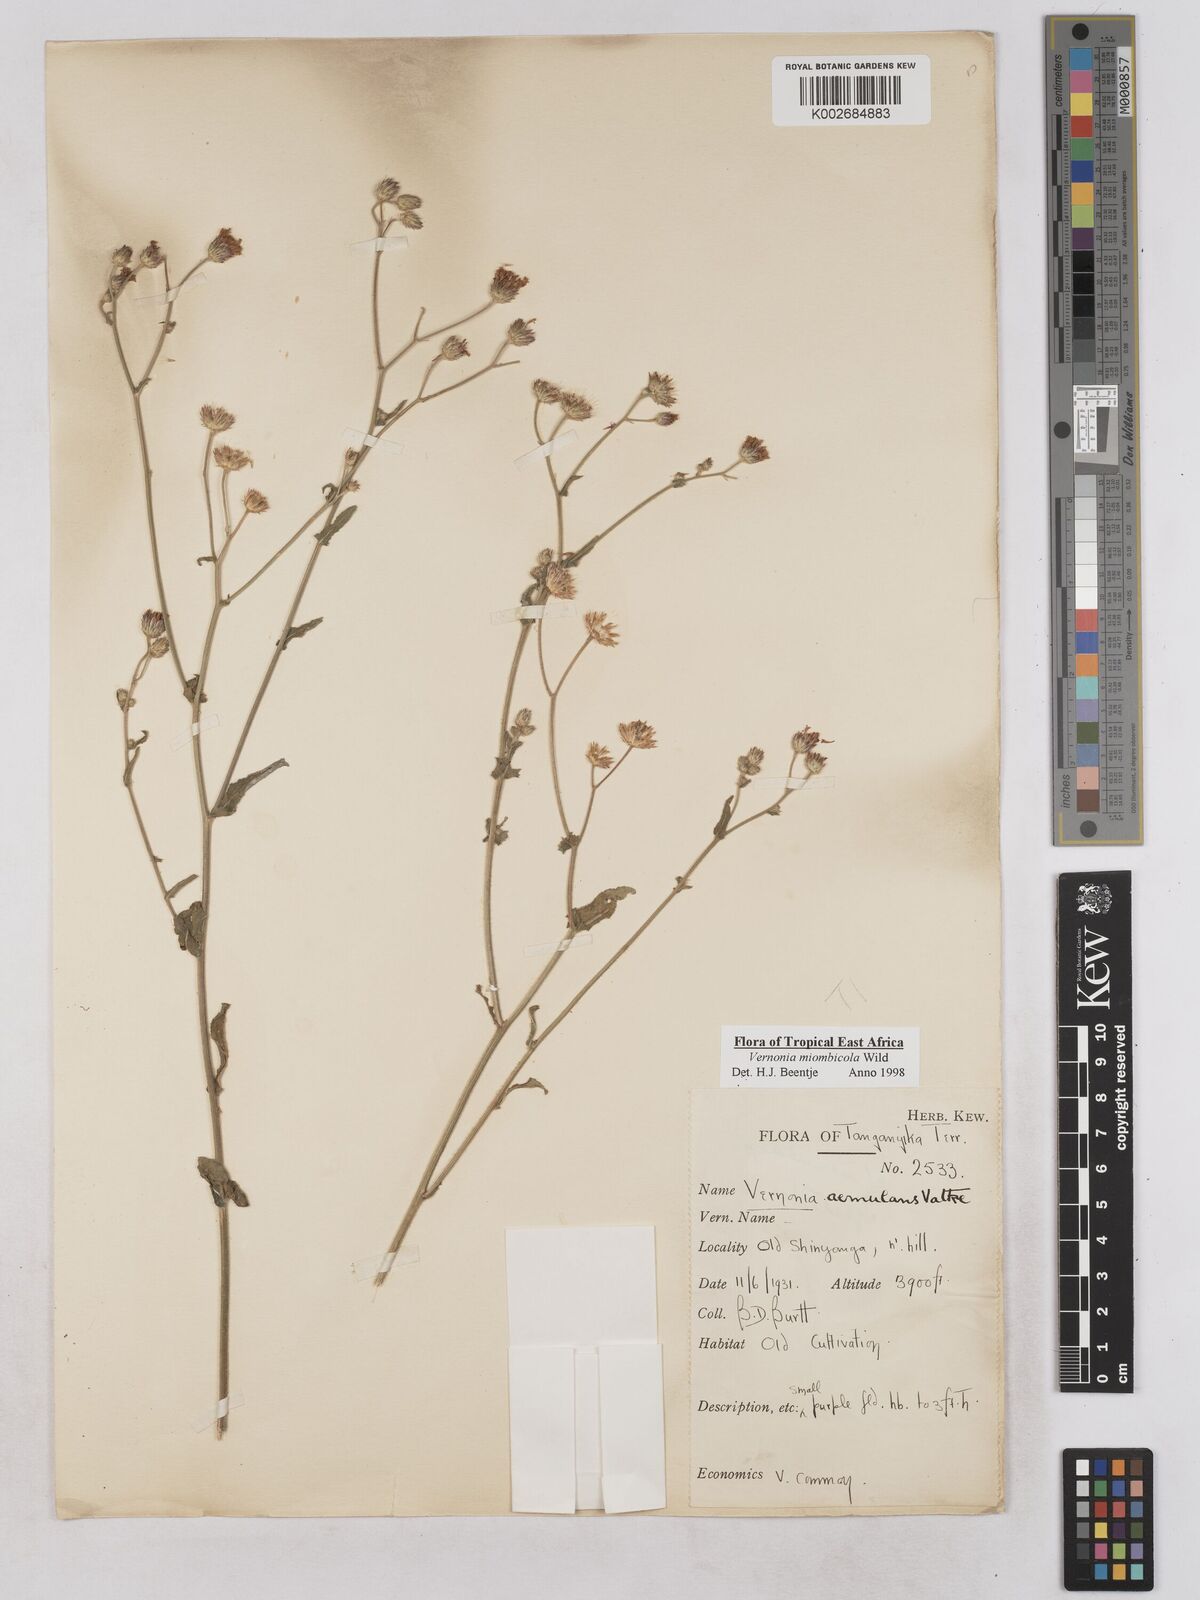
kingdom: Plantae
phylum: Tracheophyta
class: Magnoliopsida
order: Asterales
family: Asteraceae
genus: Vernonia
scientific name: Vernonia miombicola
